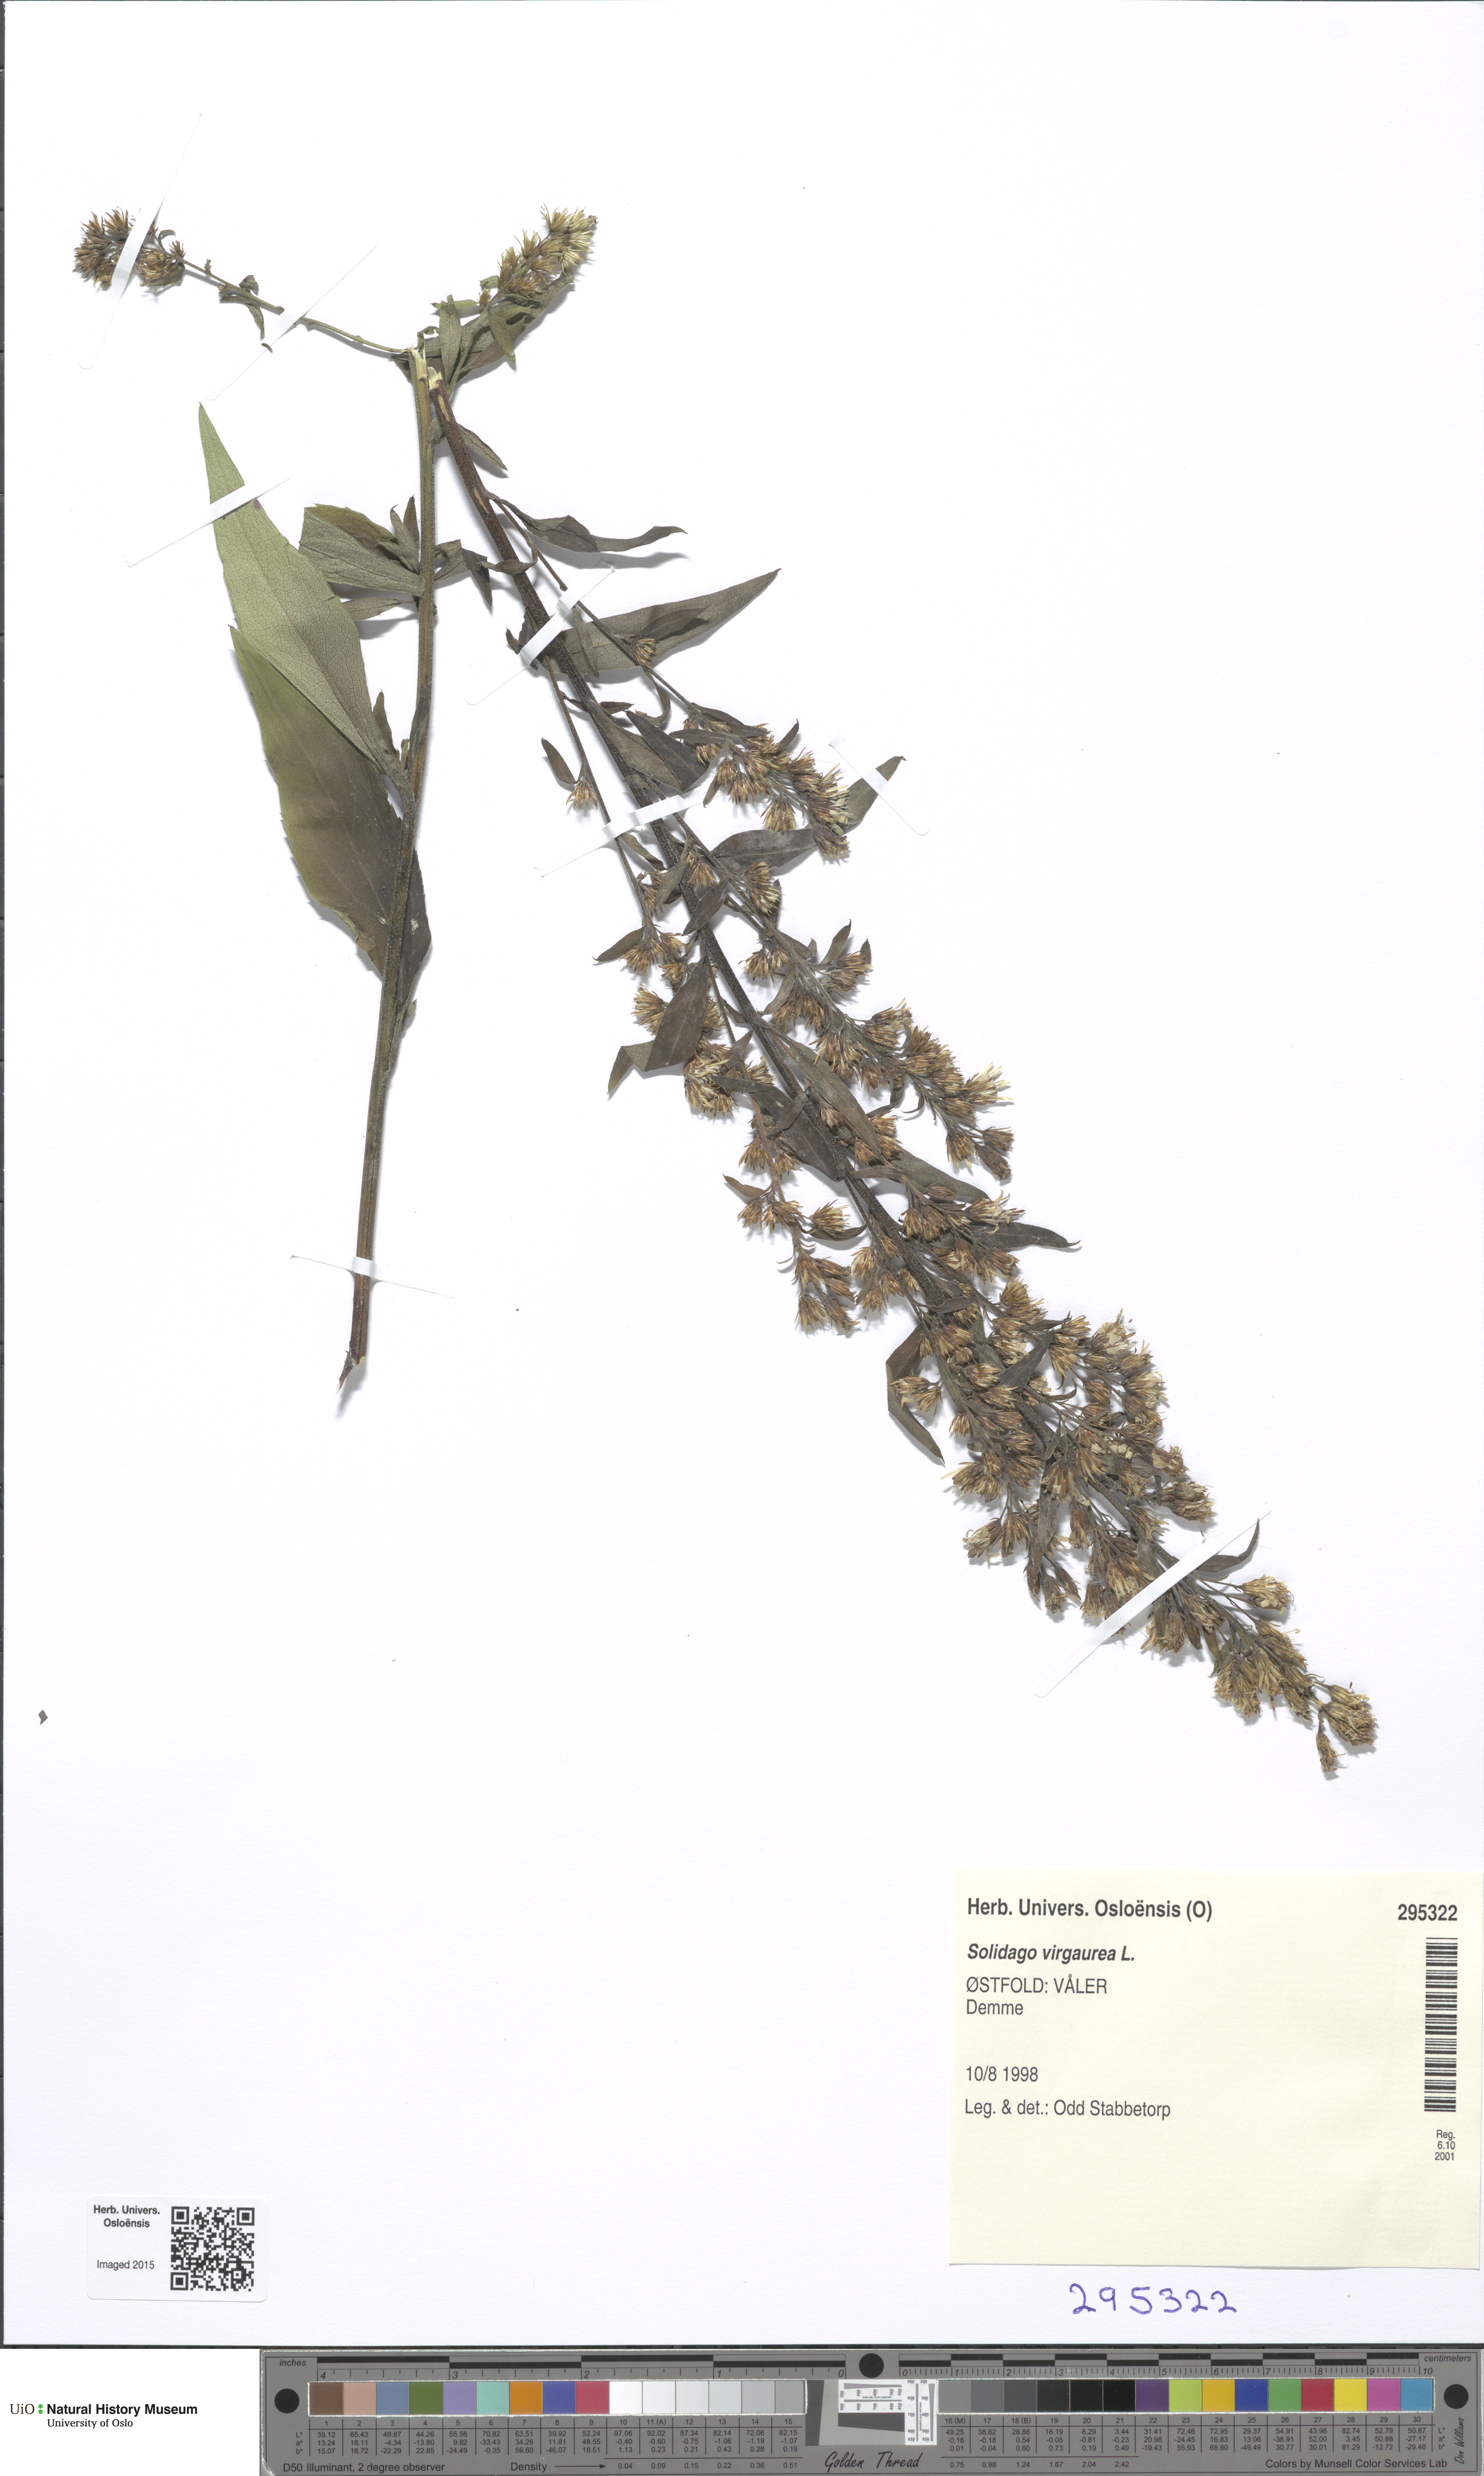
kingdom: Plantae
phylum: Tracheophyta
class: Magnoliopsida
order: Asterales
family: Asteraceae
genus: Solidago
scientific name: Solidago virgaurea
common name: Goldenrod
